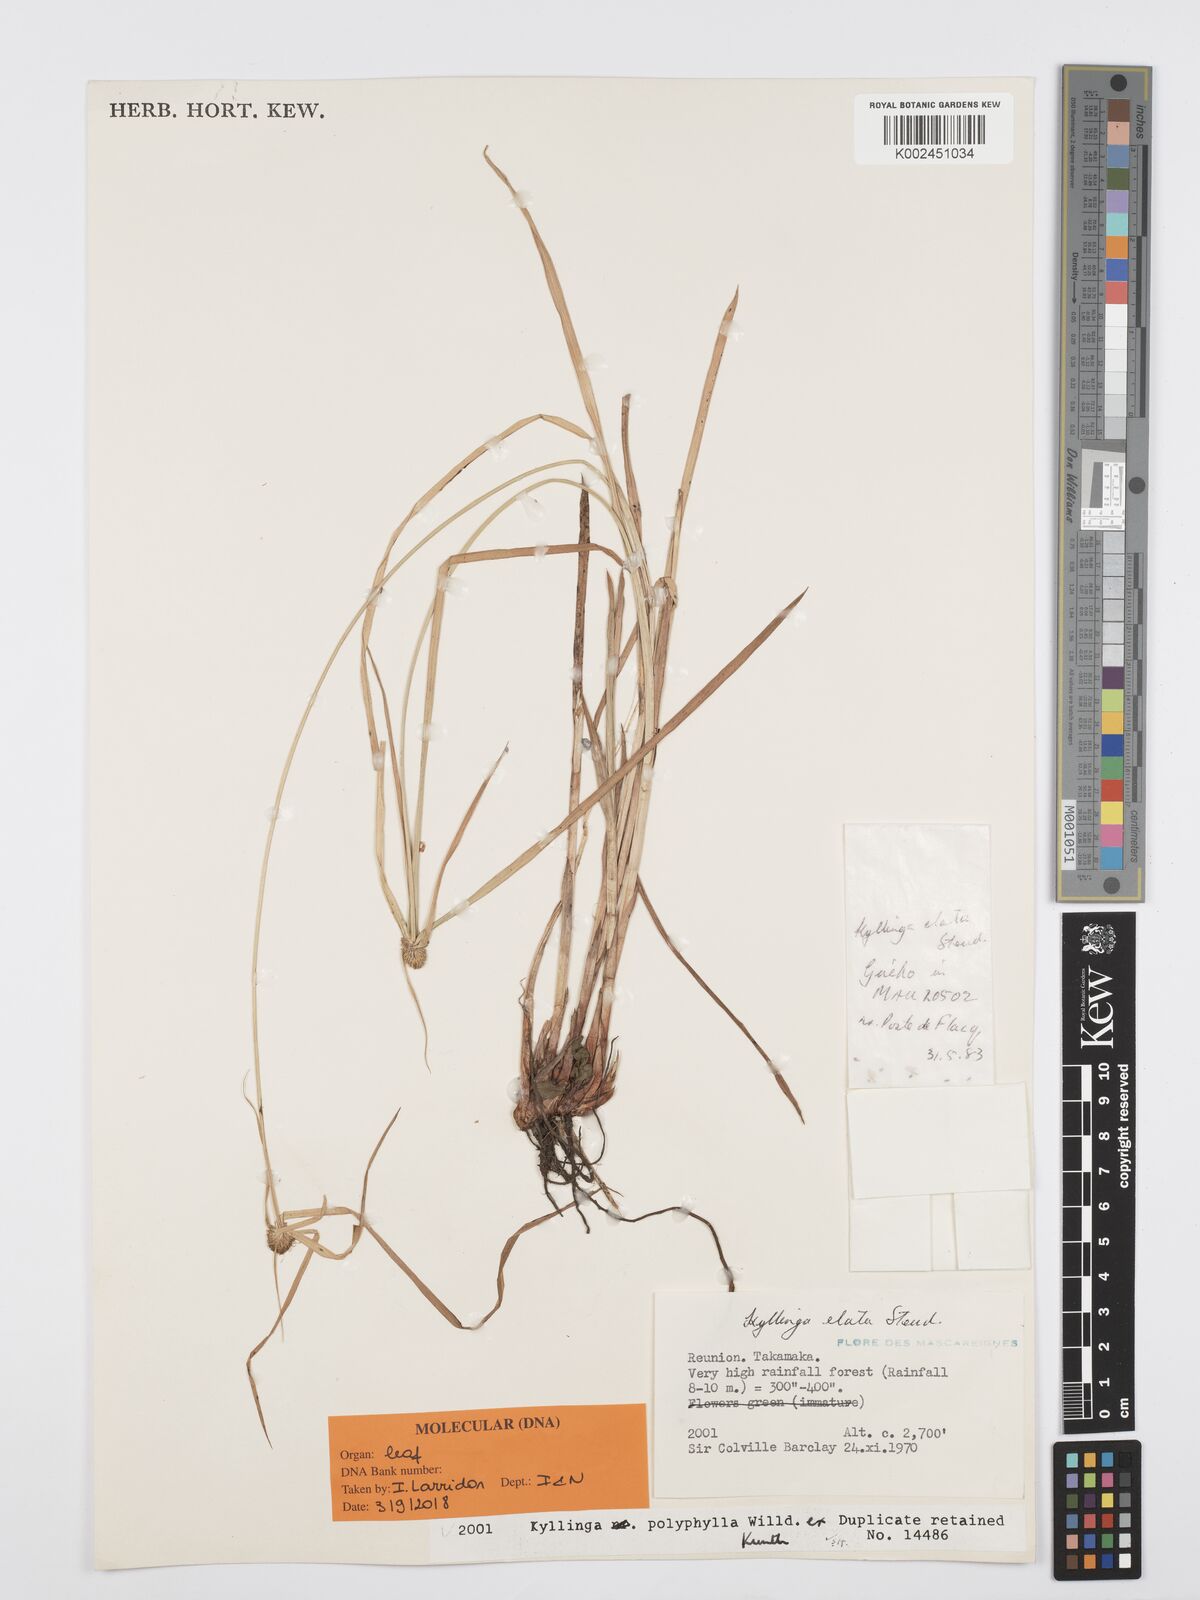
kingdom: Plantae
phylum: Tracheophyta
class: Liliopsida
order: Poales
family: Cyperaceae
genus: Cyperus
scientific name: Cyperus bulbosus
